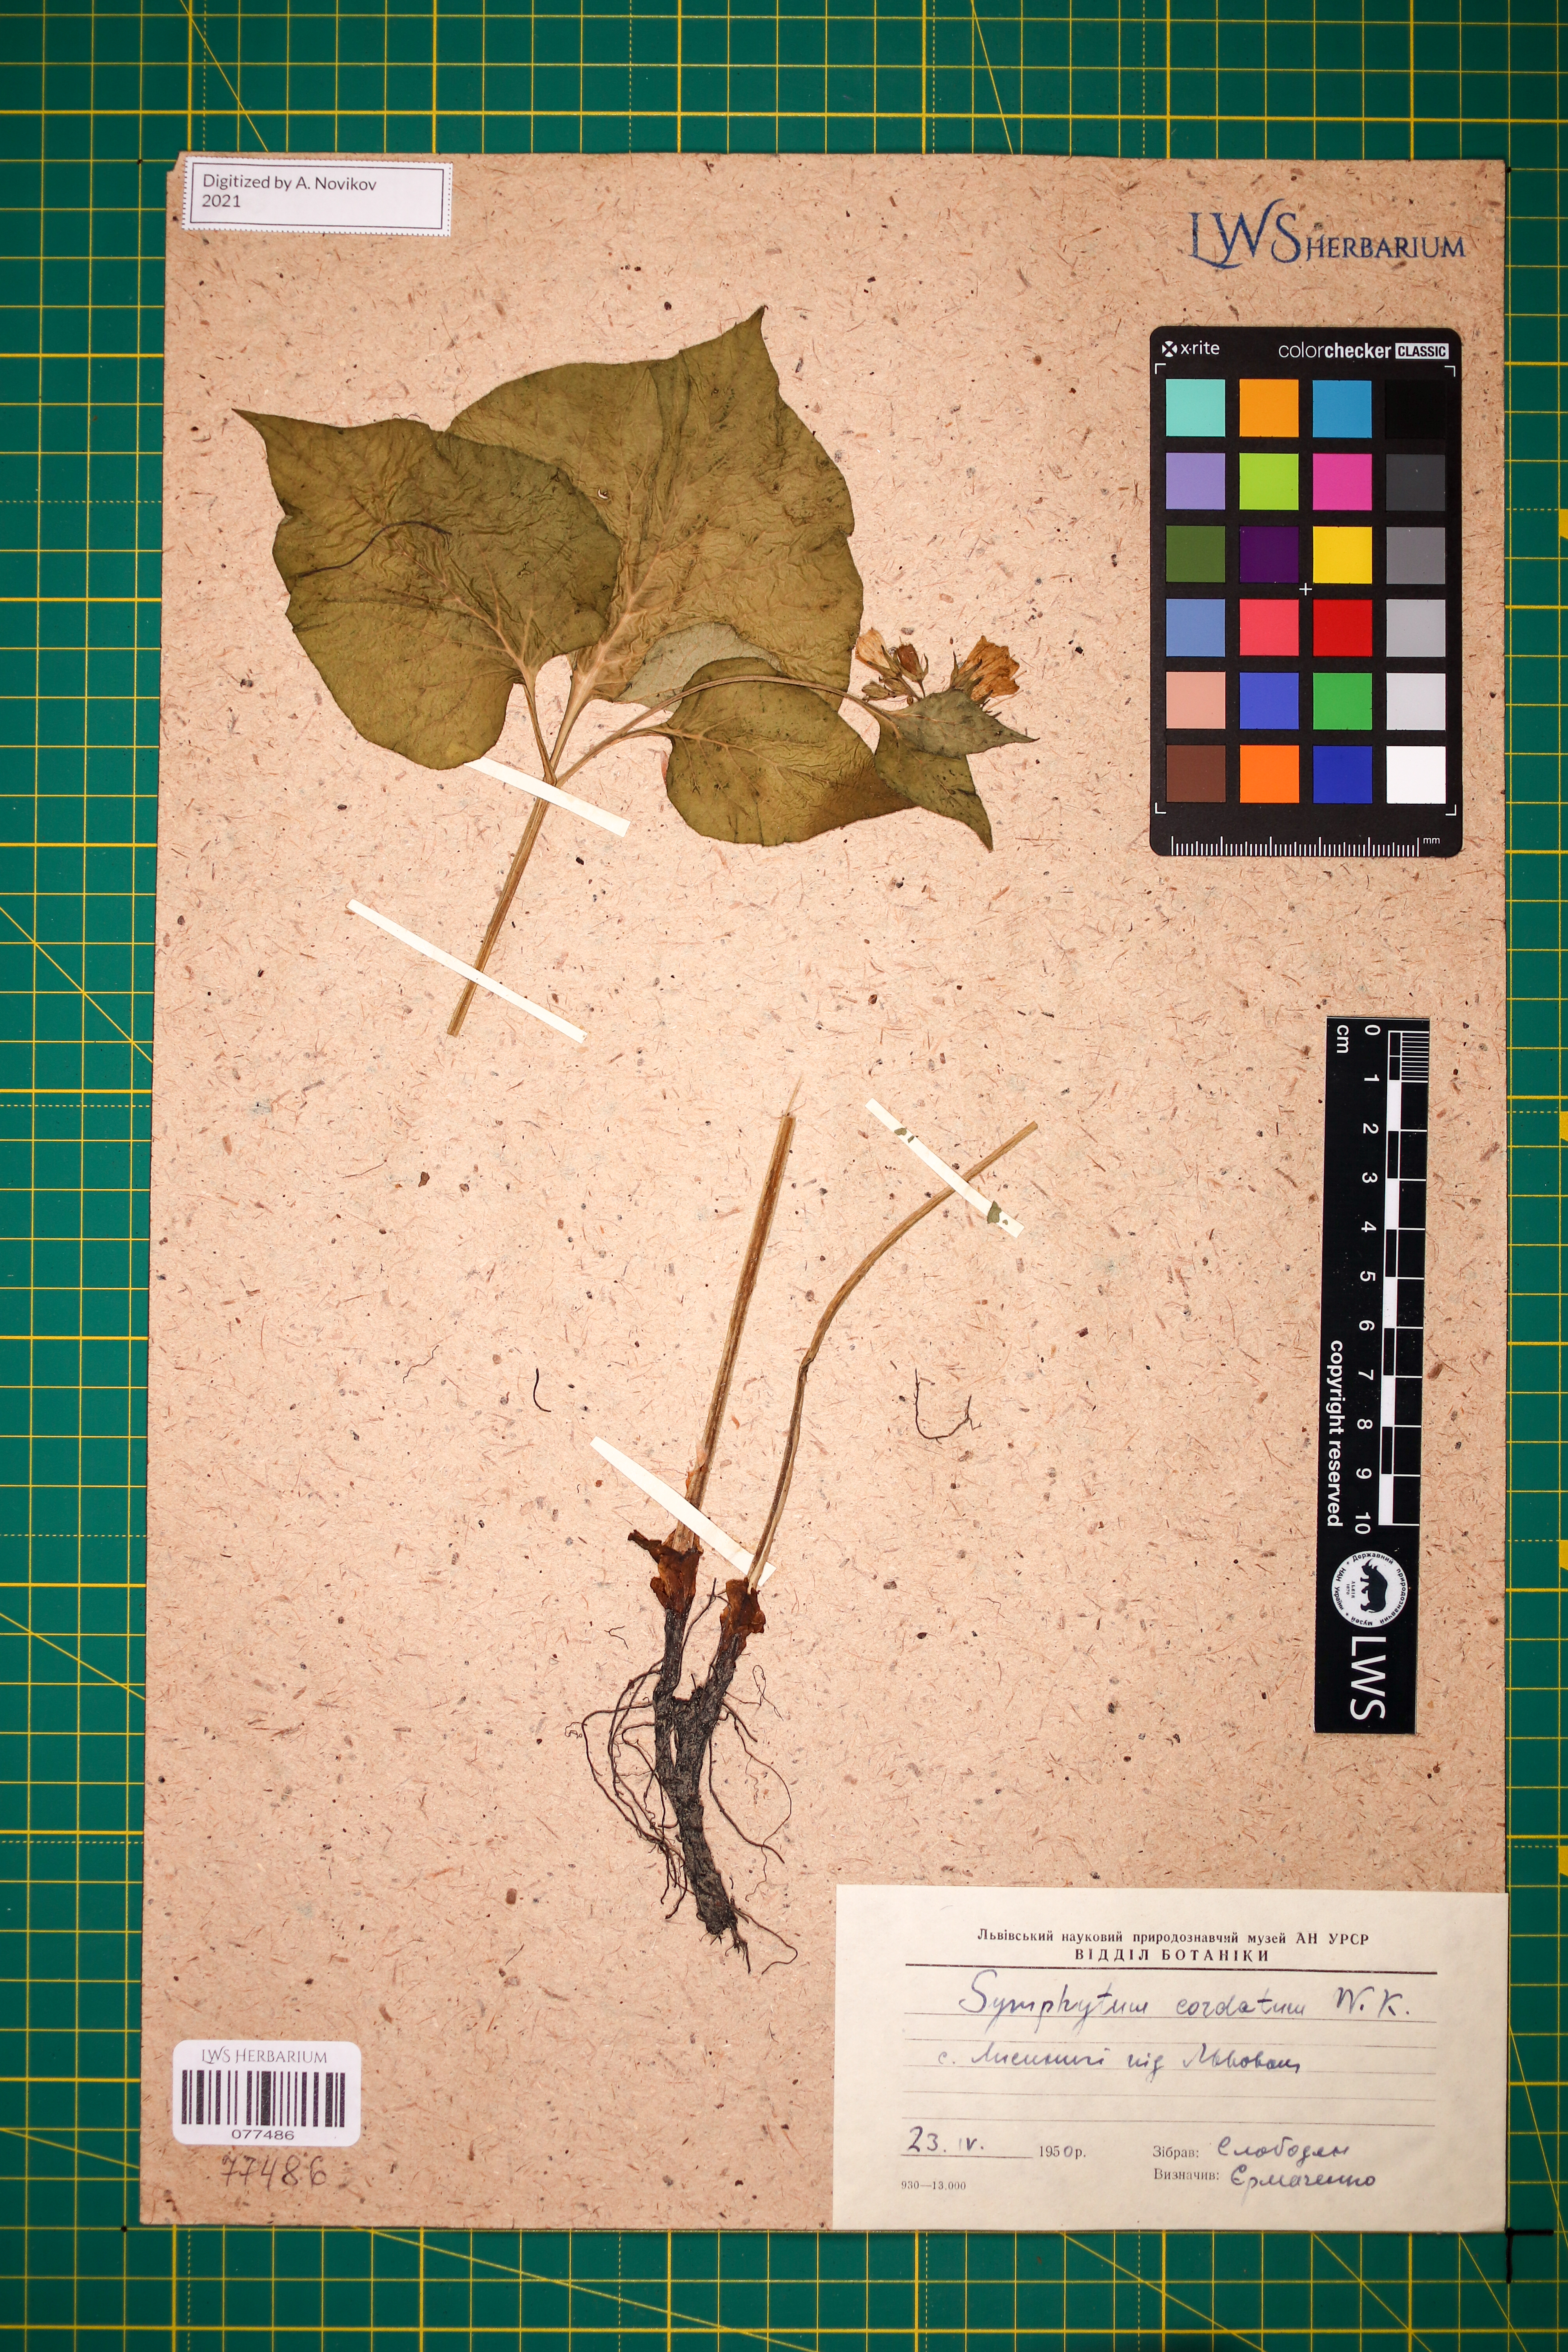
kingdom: Plantae
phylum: Tracheophyta
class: Magnoliopsida
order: Boraginales
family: Boraginaceae
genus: Symphytum
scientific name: Symphytum cordatum
